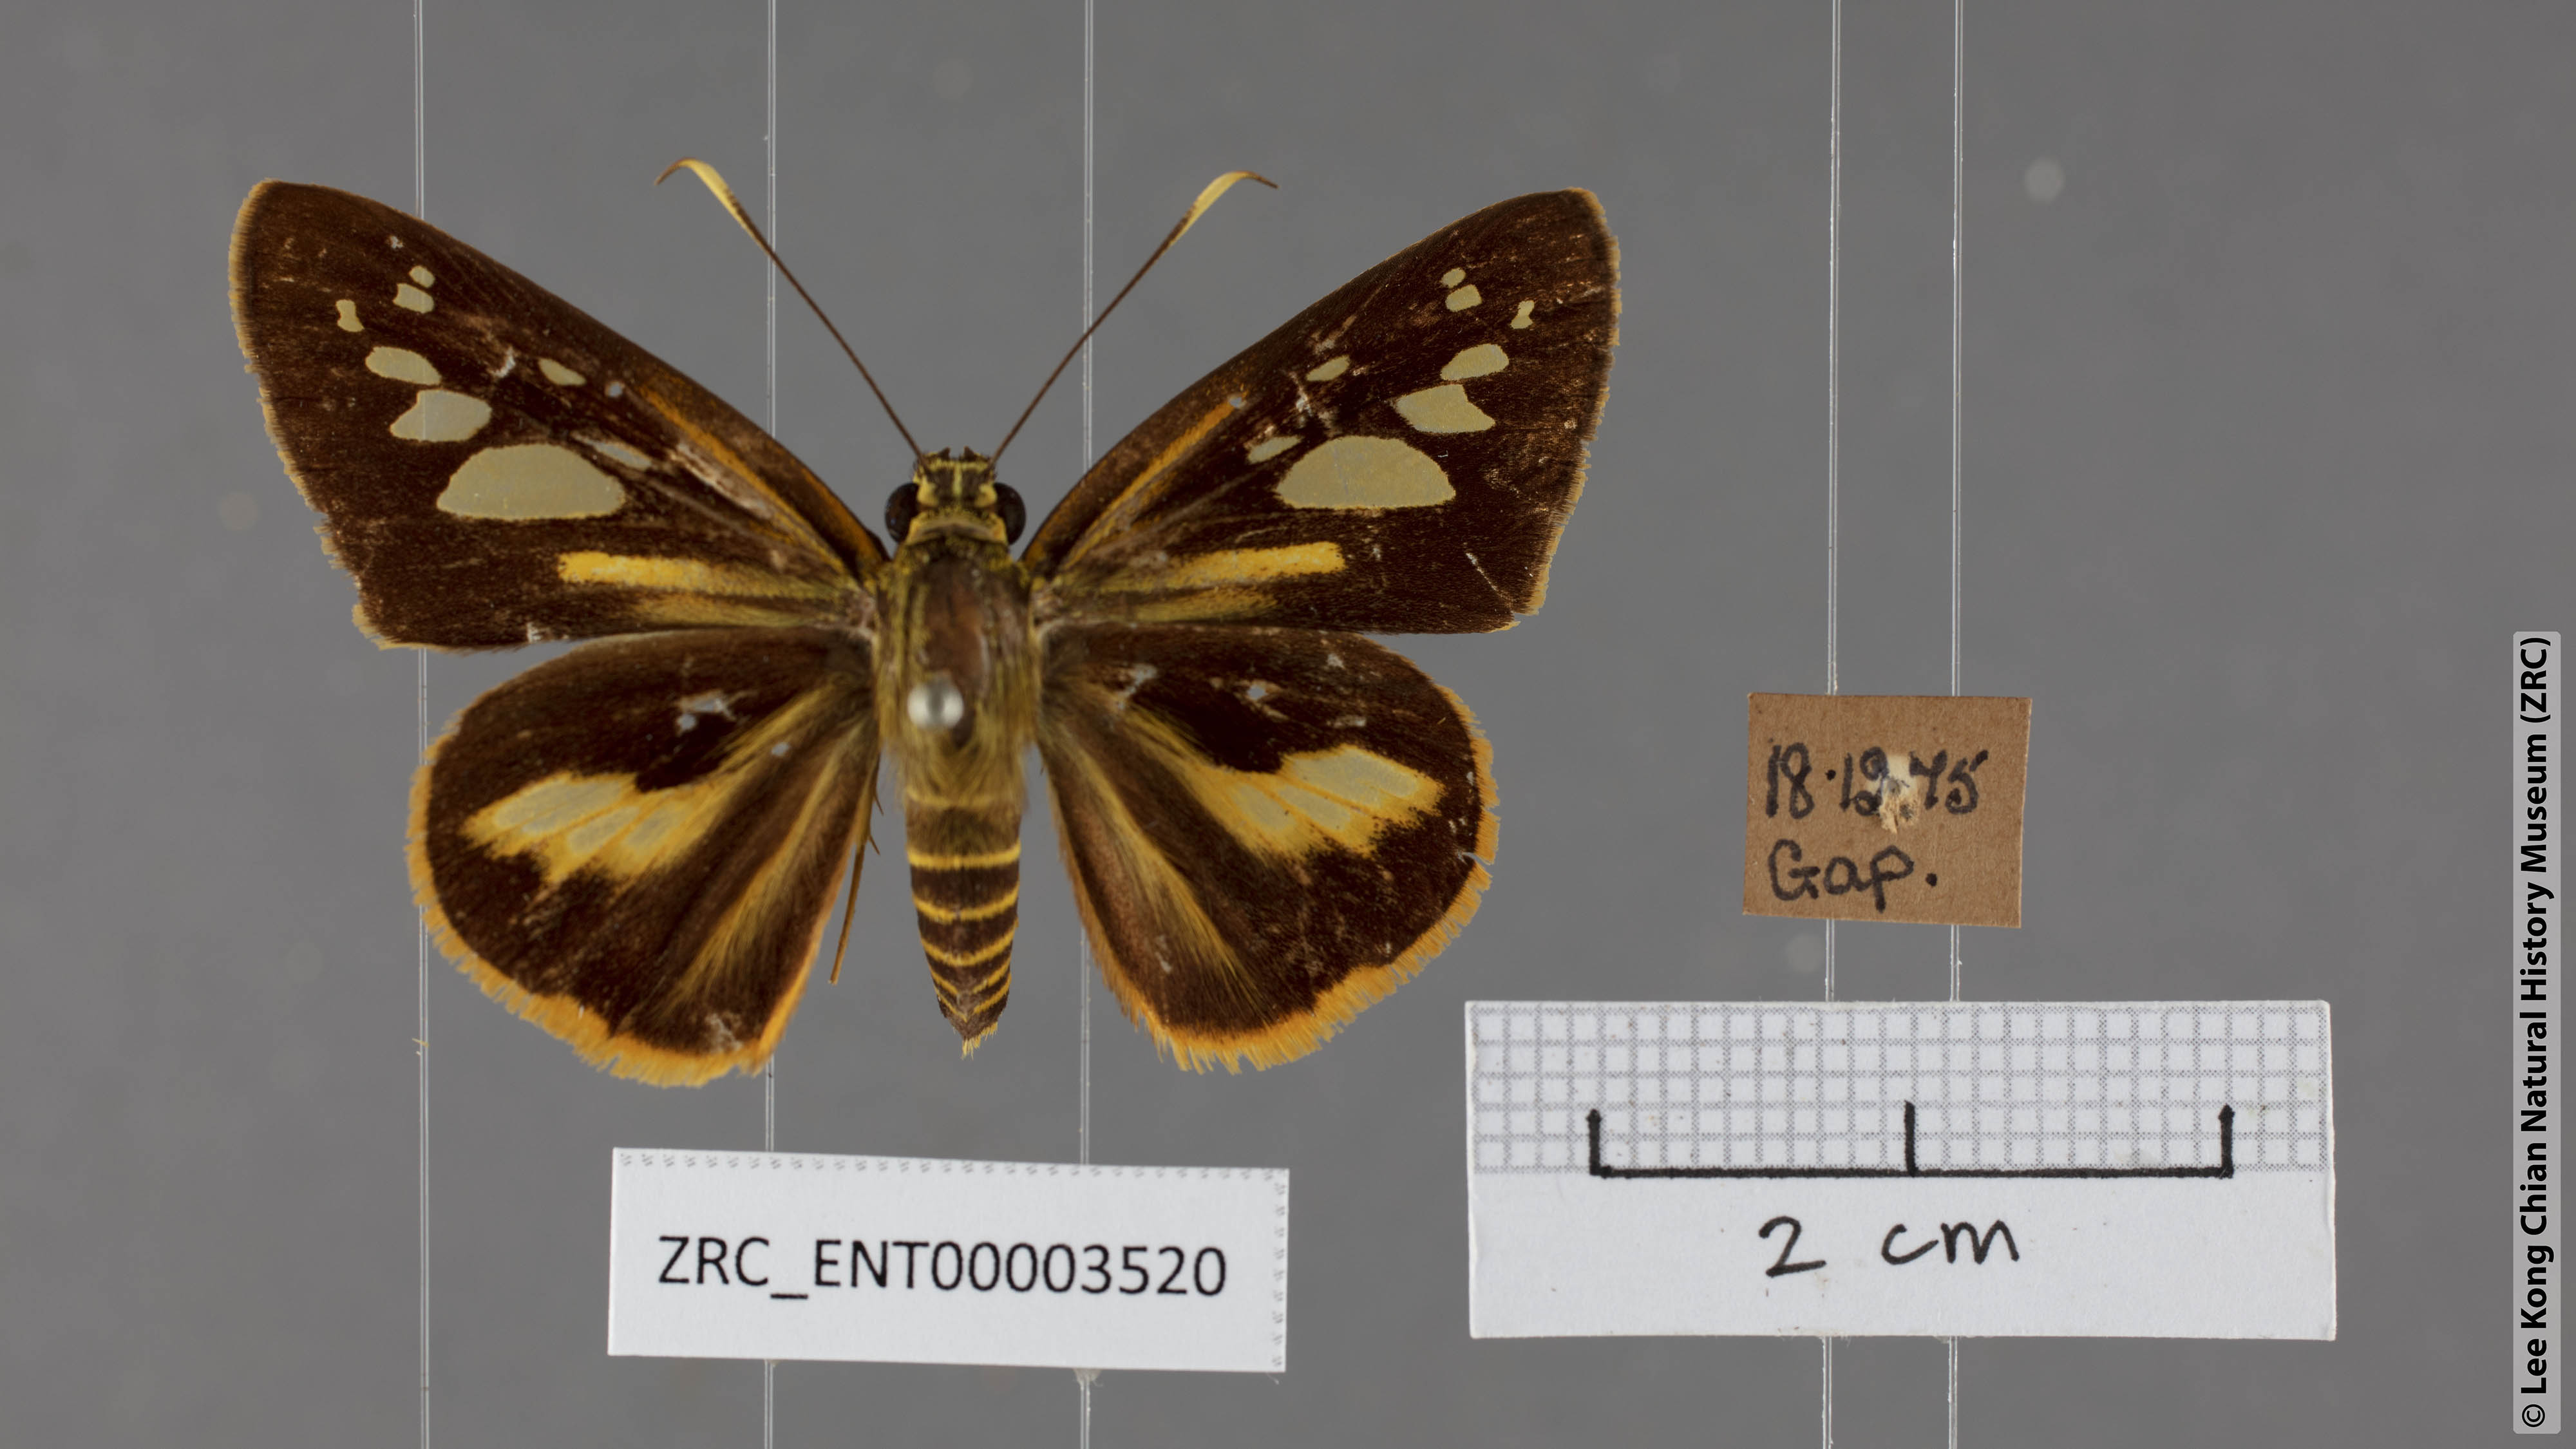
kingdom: Animalia
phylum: Arthropoda
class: Insecta
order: Lepidoptera
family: Hesperiidae
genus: Pyroneura
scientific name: Pyroneura
